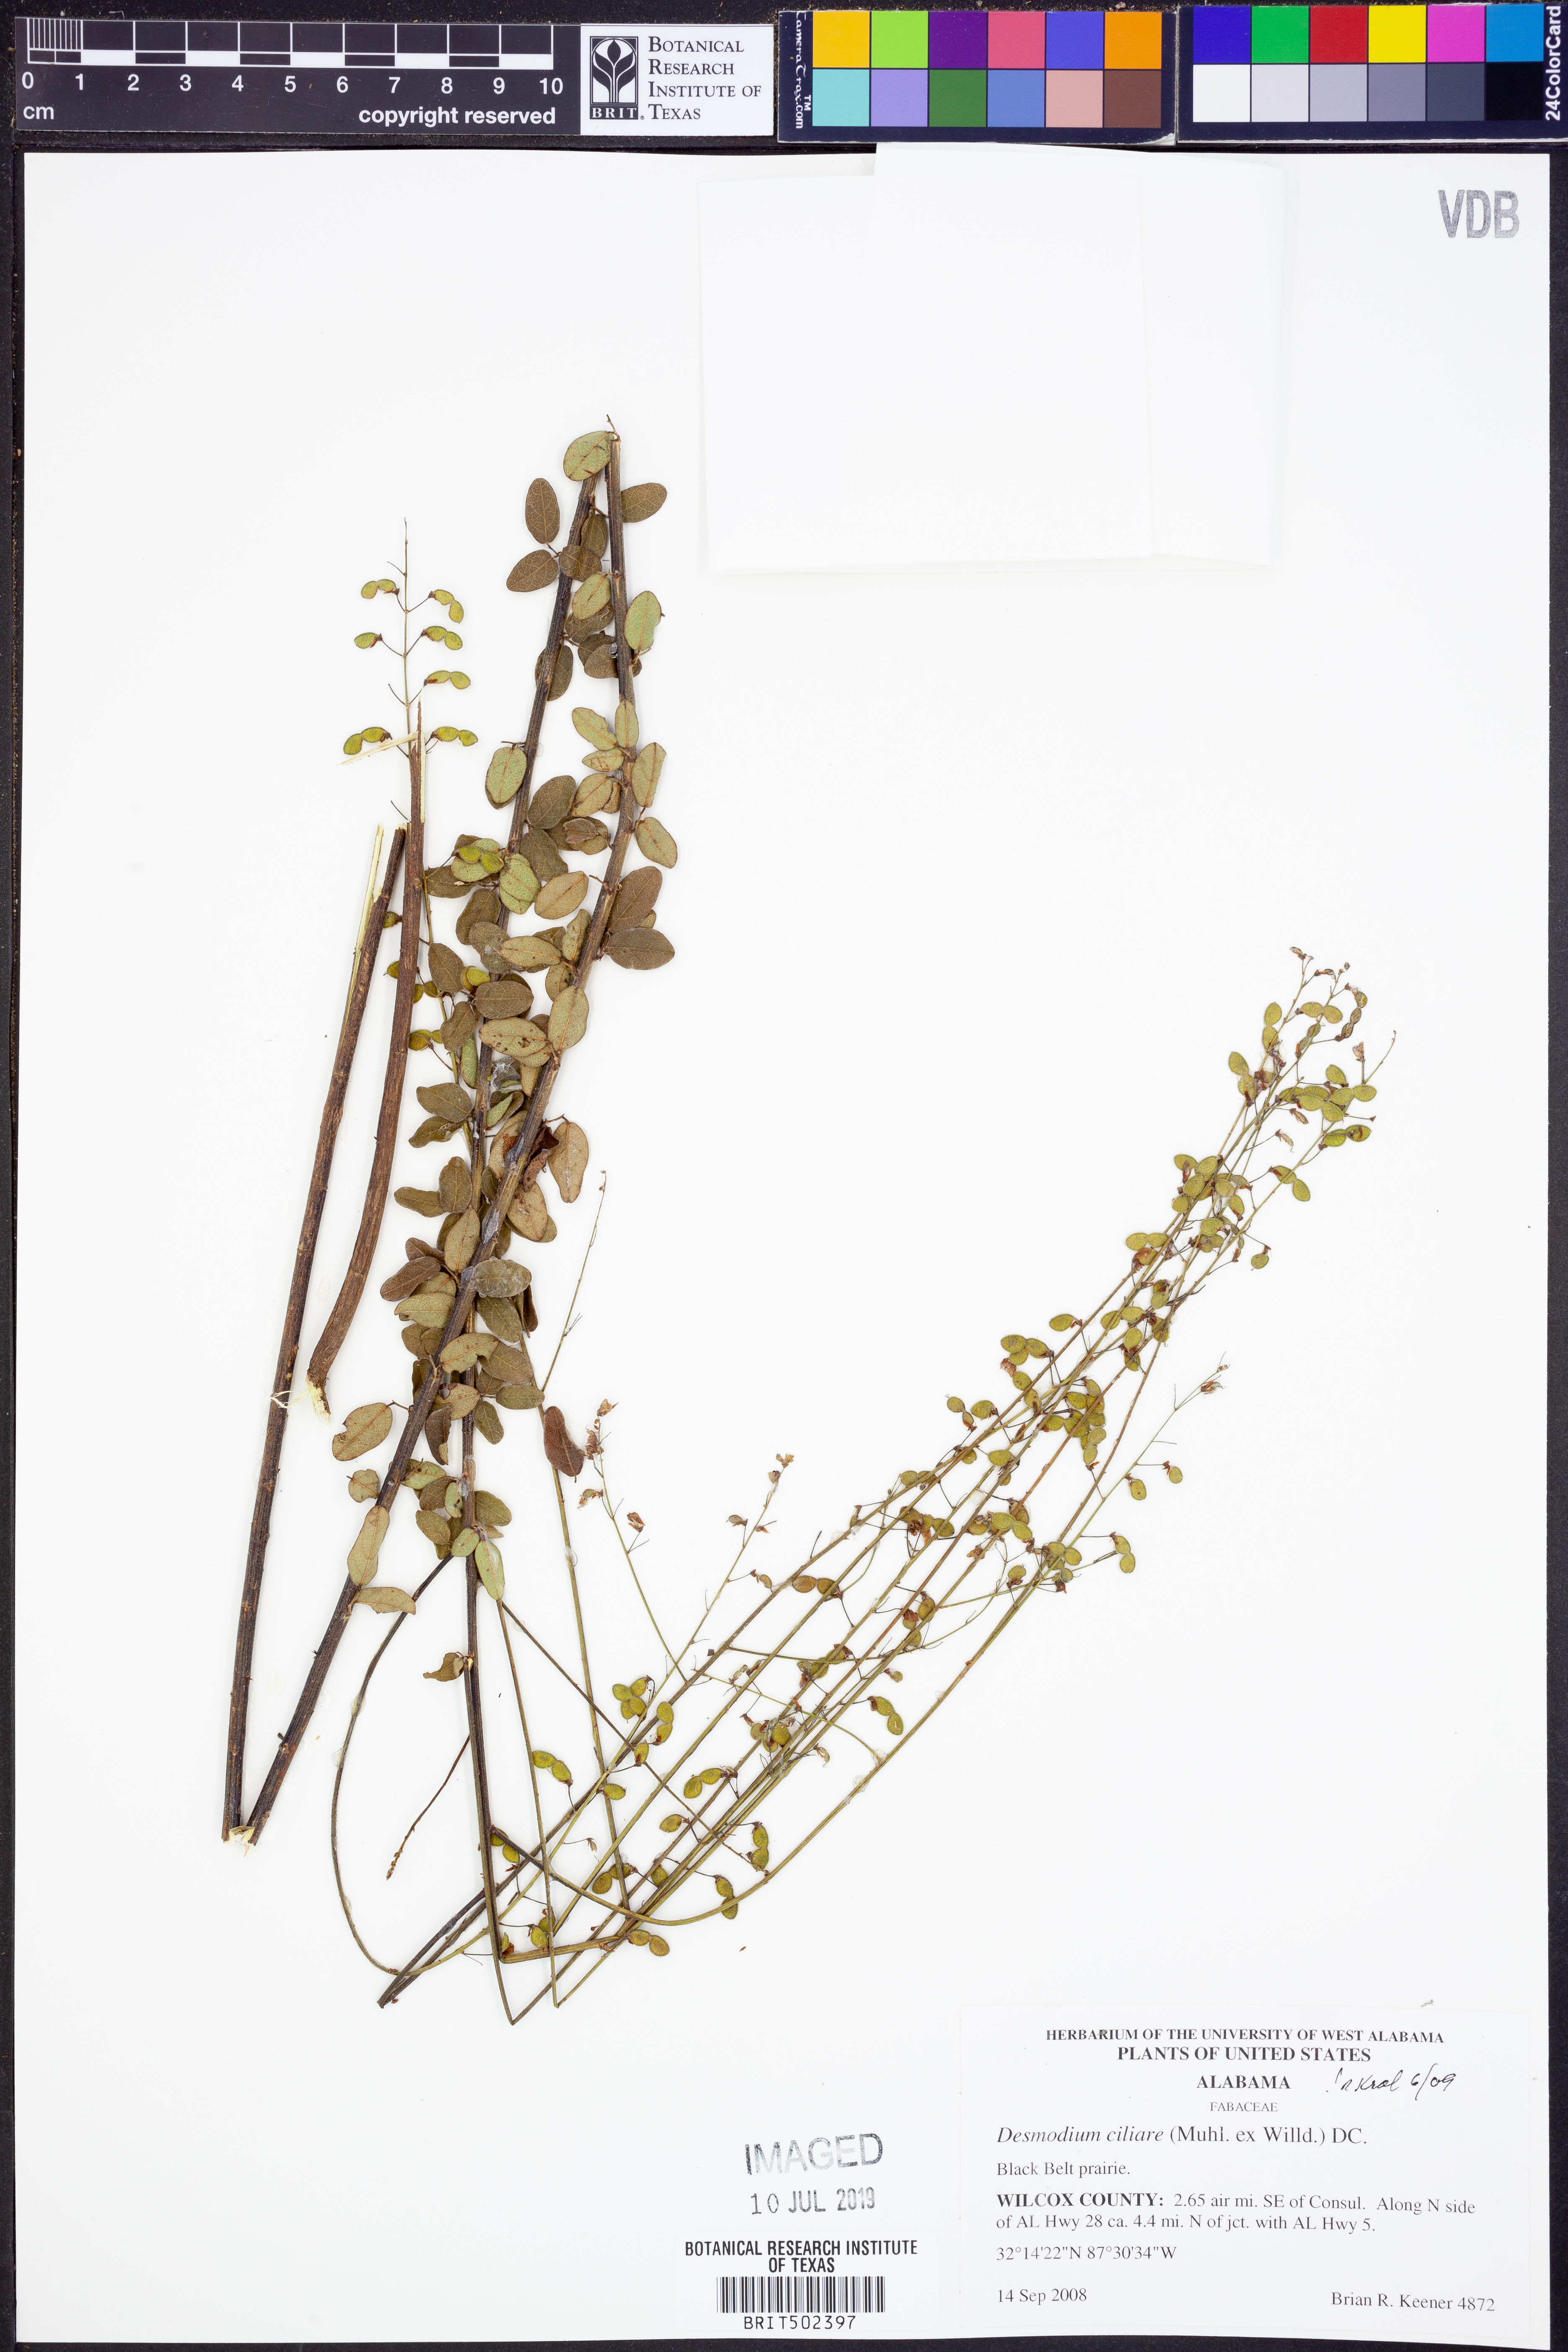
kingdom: Plantae
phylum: Tracheophyta
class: Magnoliopsida
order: Fabales
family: Fabaceae
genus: Desmodium
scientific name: Desmodium ciliare
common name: Hairy small-leaf ticktrefoil
